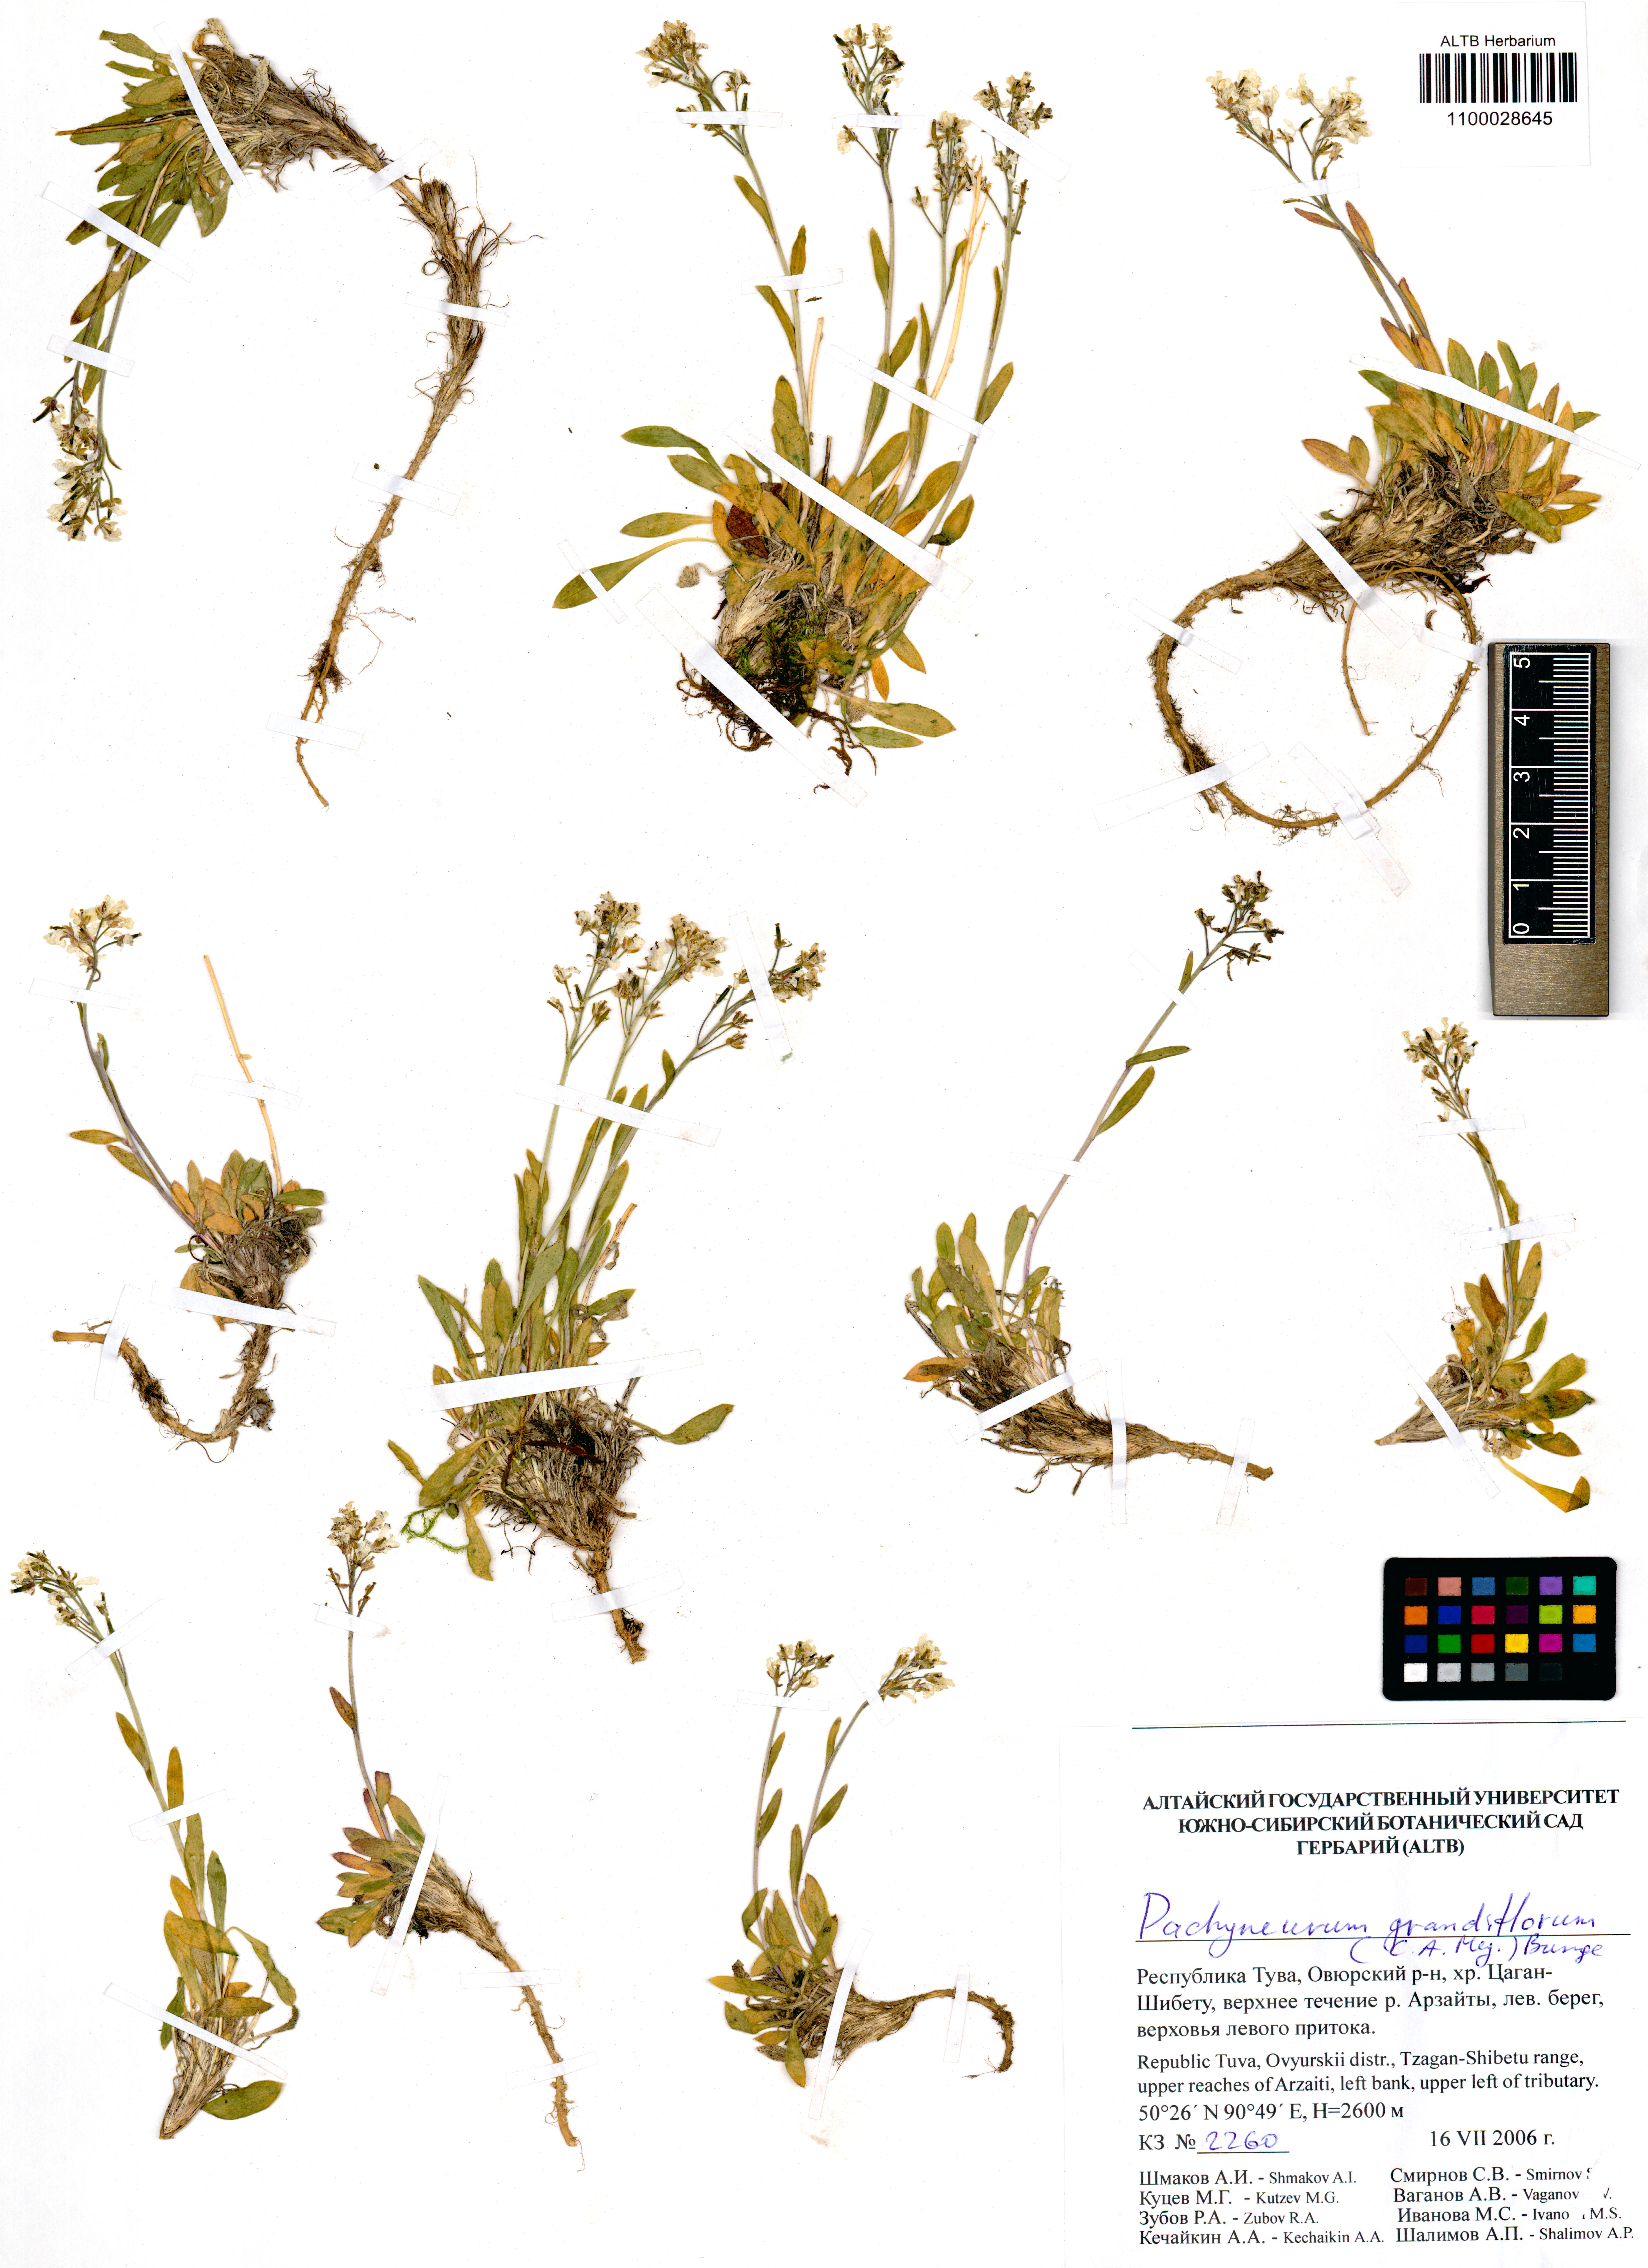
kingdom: Plantae
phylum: Tracheophyta
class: Magnoliopsida
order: Brassicales
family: Brassicaceae
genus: Pachyneurum
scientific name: Pachyneurum grandiflorum
